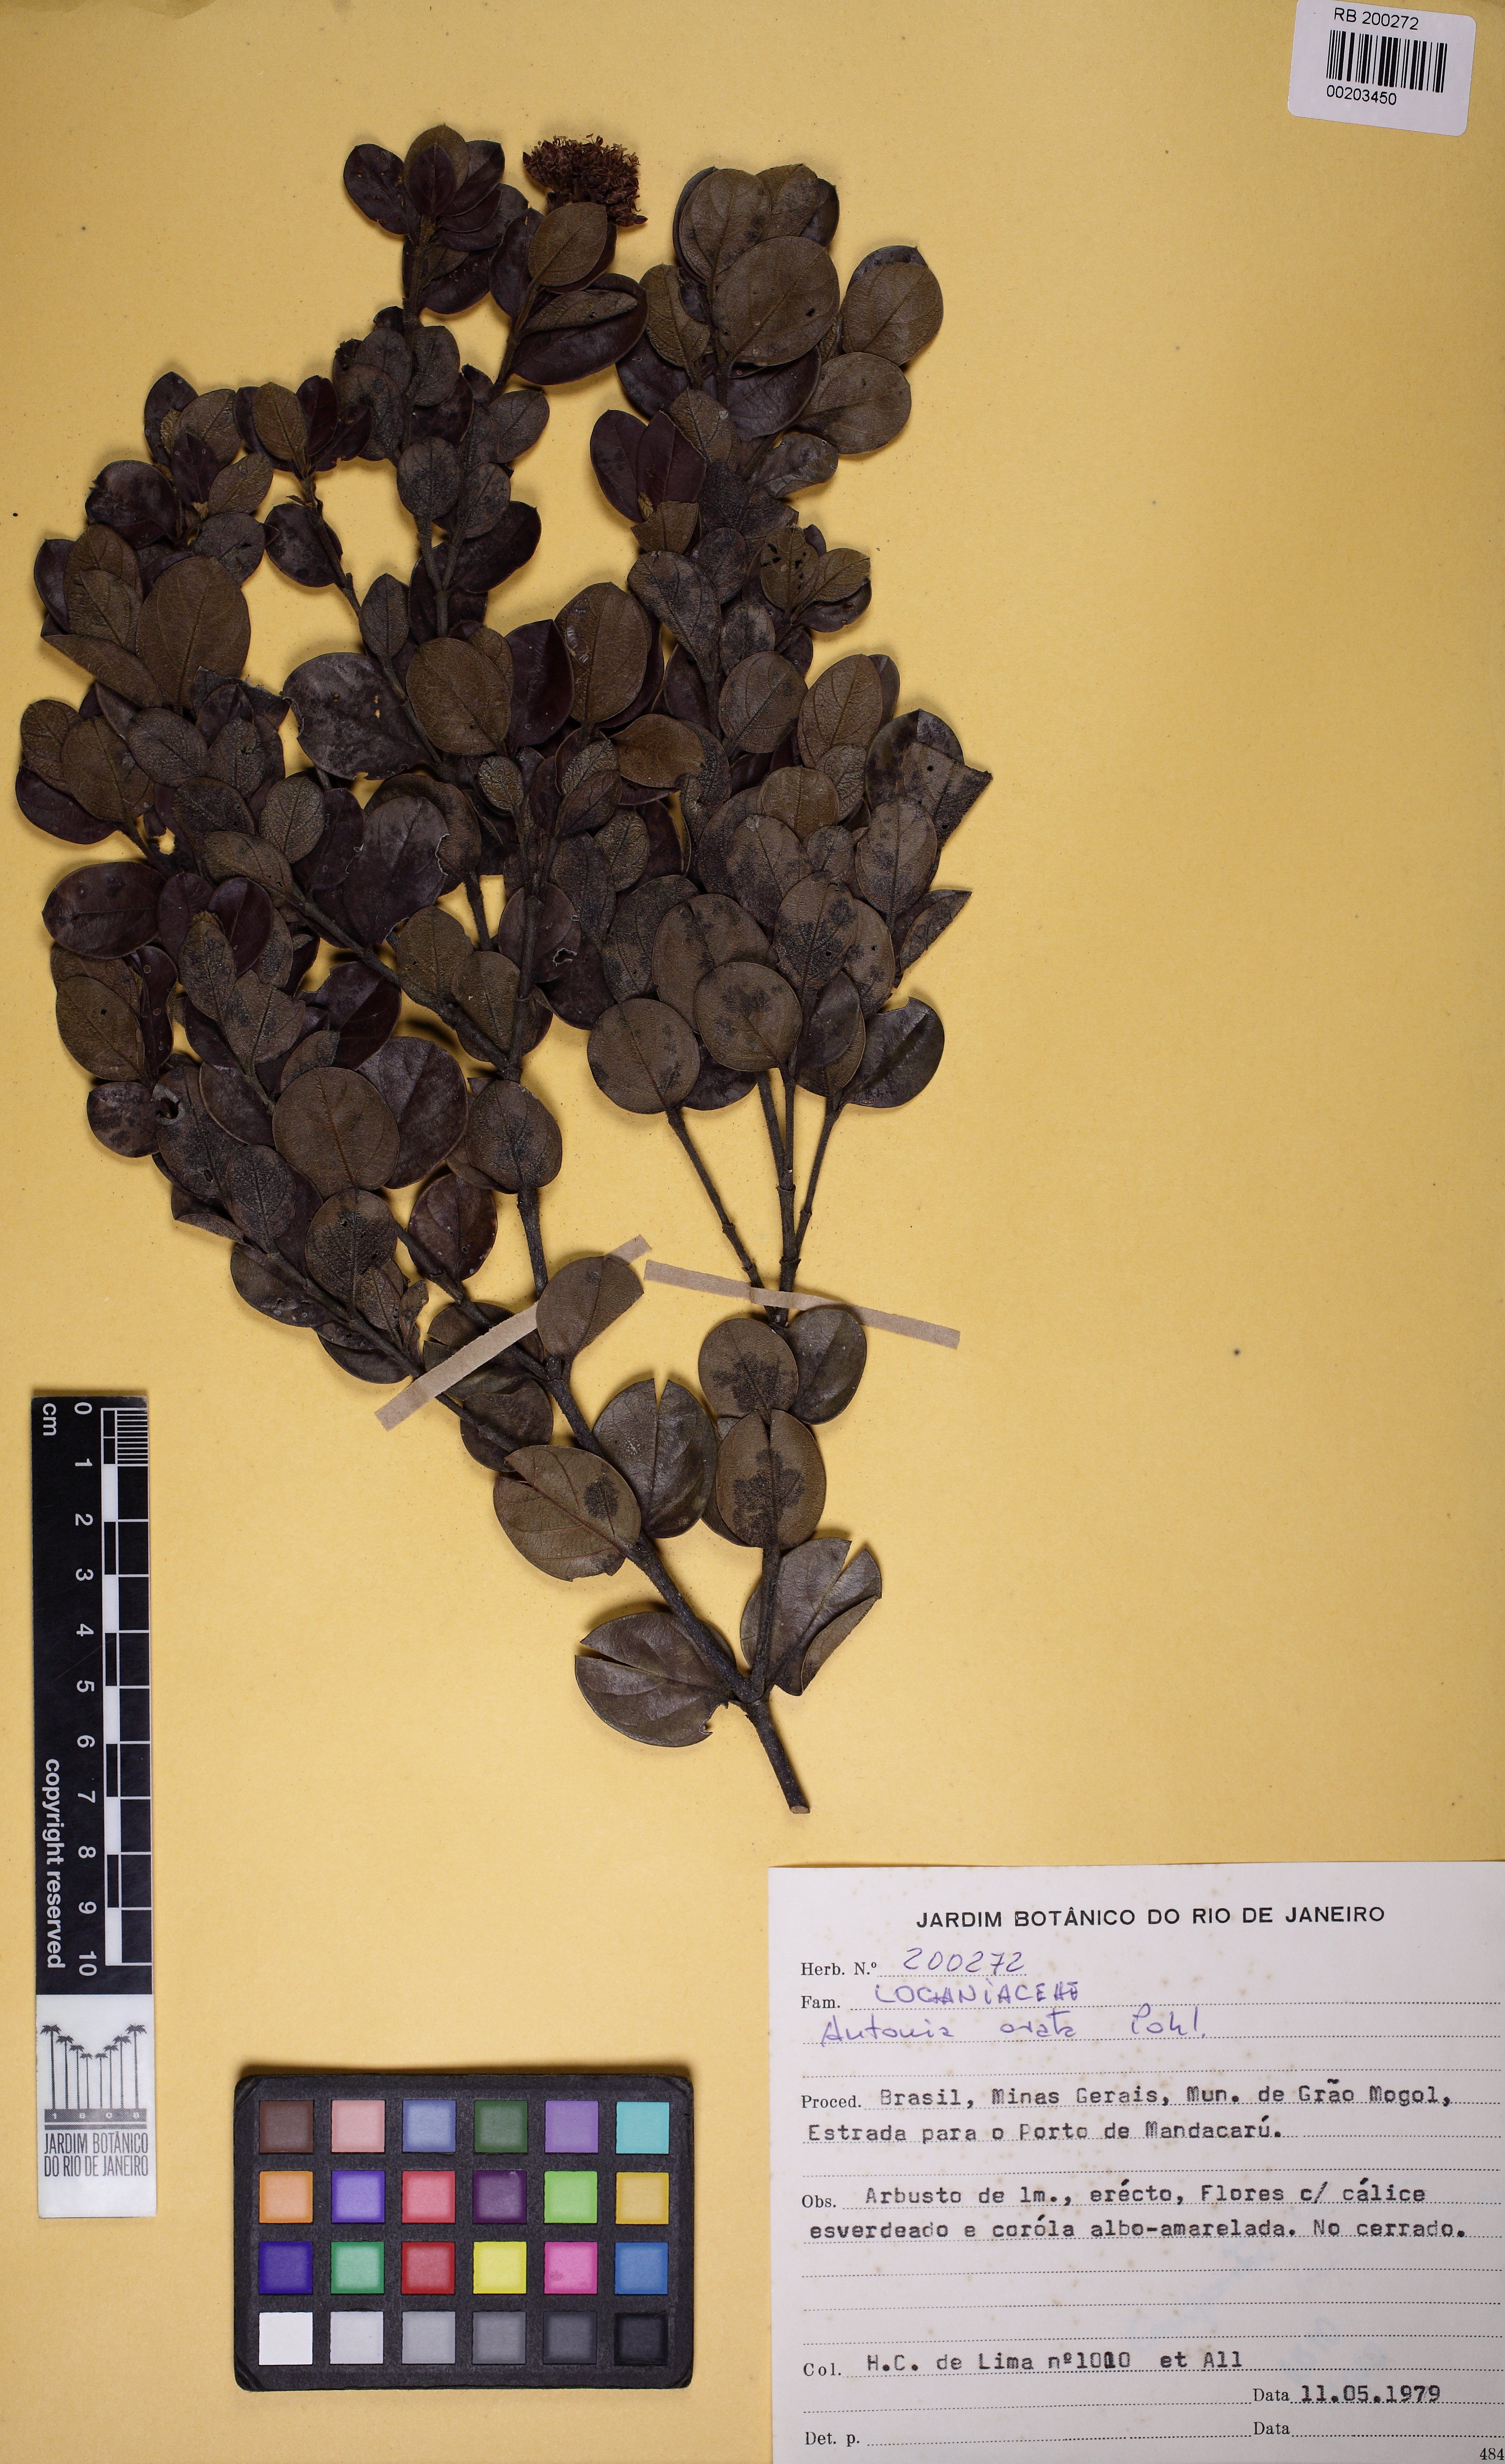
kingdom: Plantae
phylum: Tracheophyta
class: Magnoliopsida
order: Gentianales
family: Loganiaceae
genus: Antonia
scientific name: Antonia ovata
